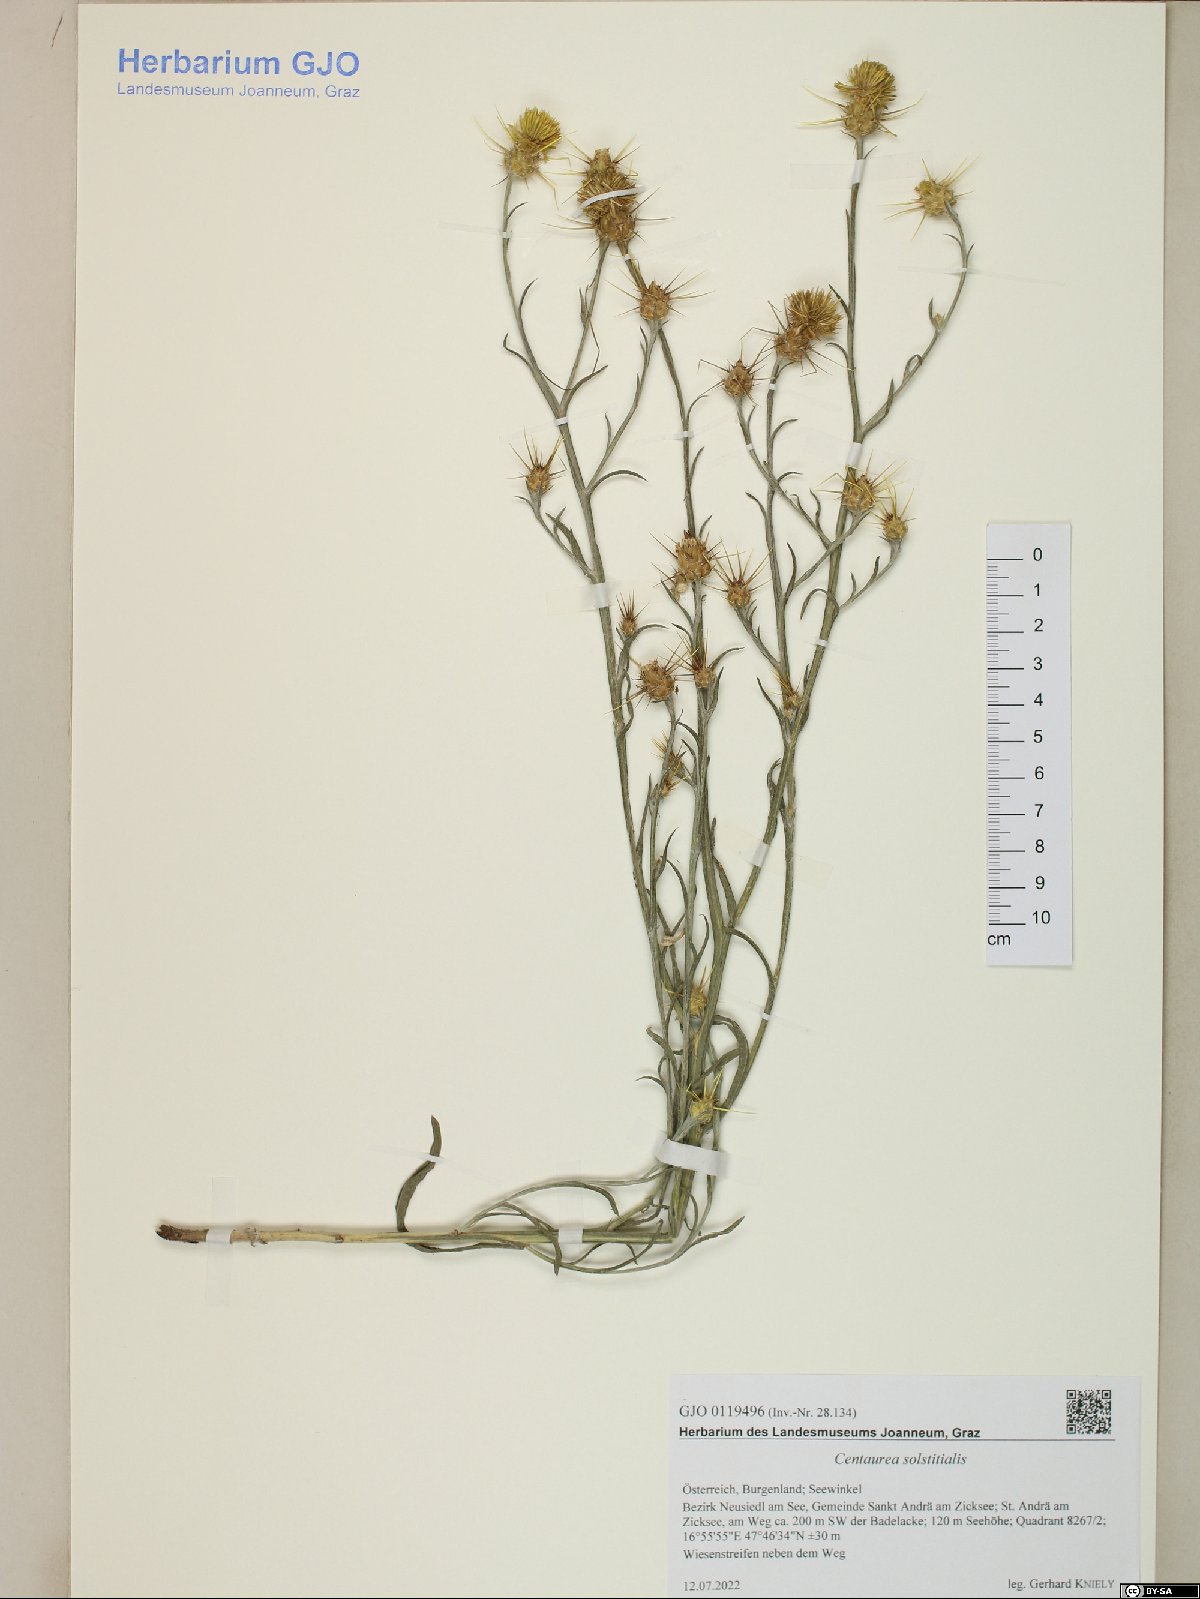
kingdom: Plantae
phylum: Tracheophyta
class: Magnoliopsida
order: Asterales
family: Asteraceae
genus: Centaurea
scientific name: Centaurea solstitialis
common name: Yellow star-thistle
